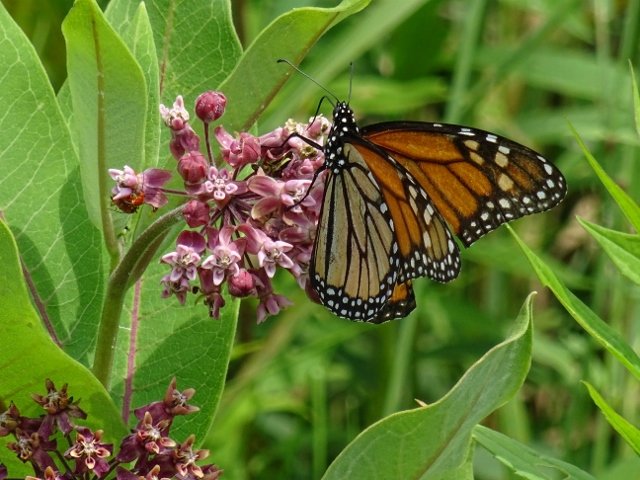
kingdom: Animalia
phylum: Arthropoda
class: Insecta
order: Lepidoptera
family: Nymphalidae
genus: Danaus
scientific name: Danaus plexippus
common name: Monarch
